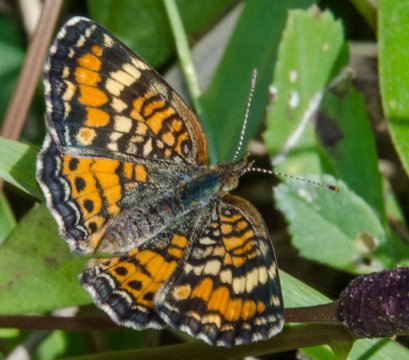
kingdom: Animalia
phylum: Arthropoda
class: Insecta
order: Lepidoptera
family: Nymphalidae
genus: Phyciodes
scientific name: Phyciodes phaon
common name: Phaon Crescent
